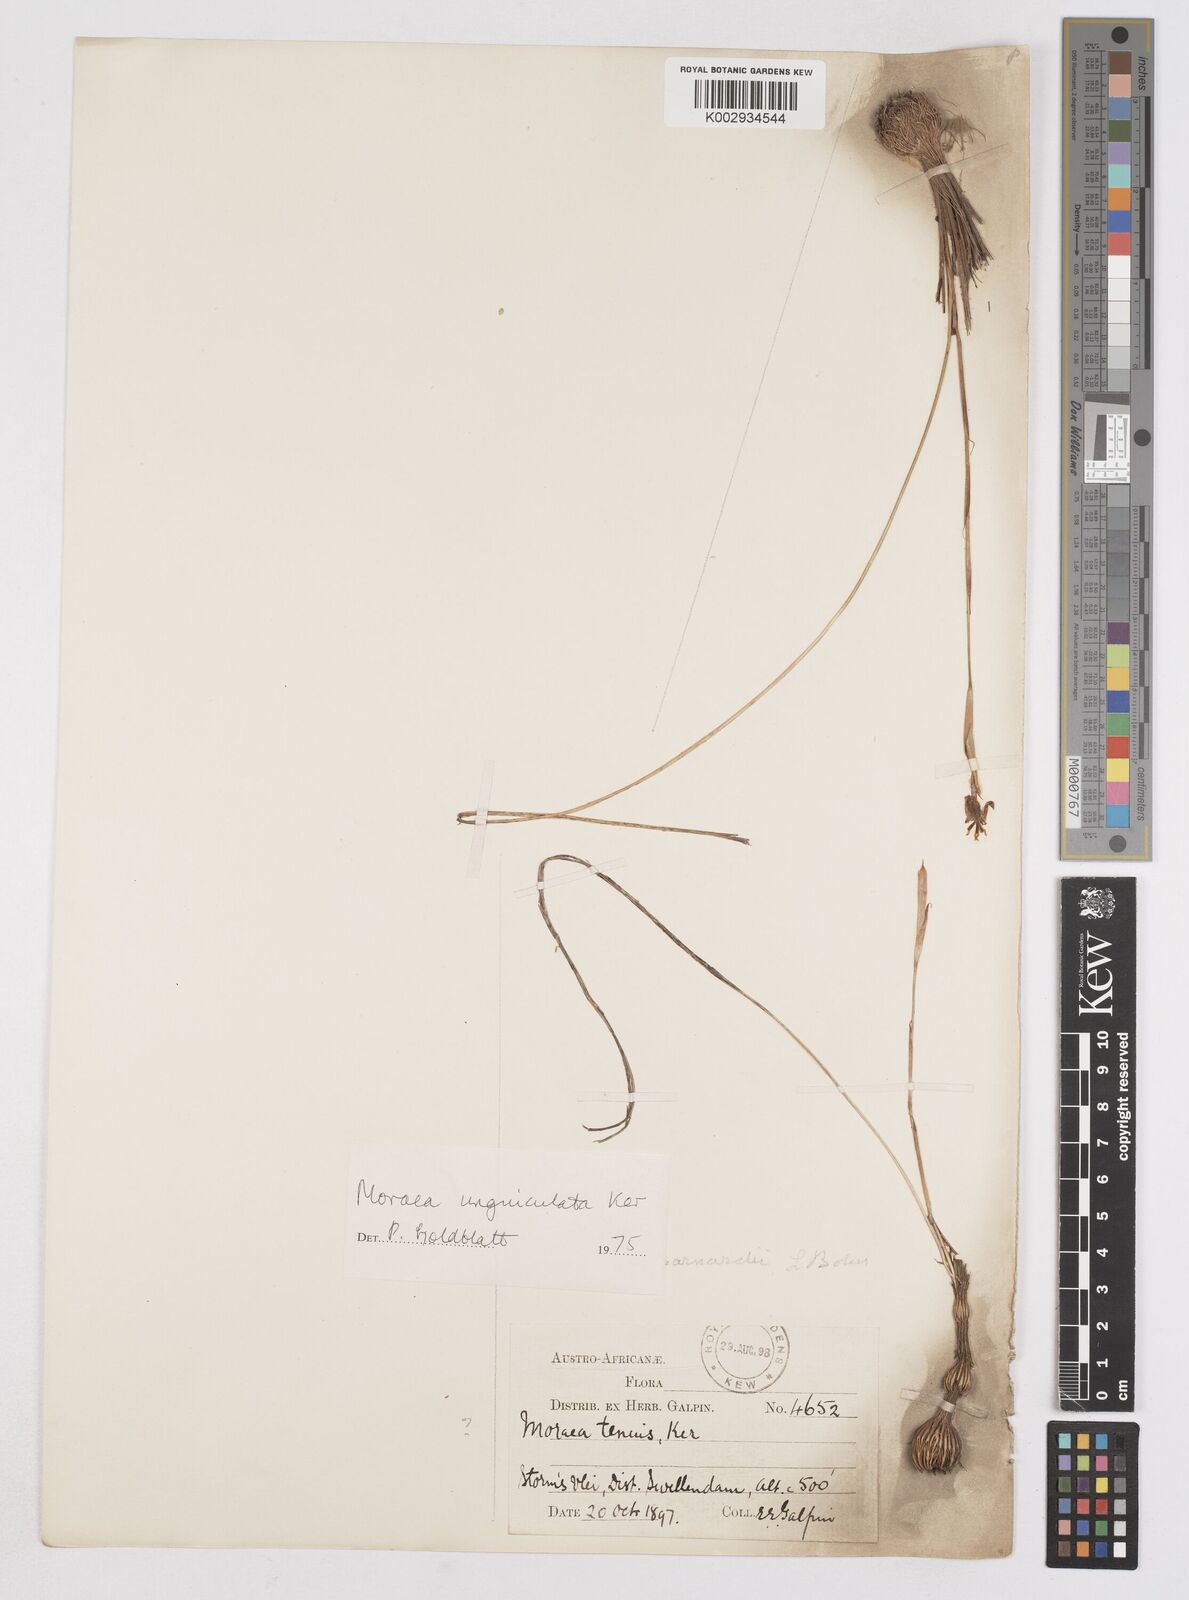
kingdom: Plantae
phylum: Tracheophyta
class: Liliopsida
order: Asparagales
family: Iridaceae
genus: Moraea
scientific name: Moraea unguiculata
